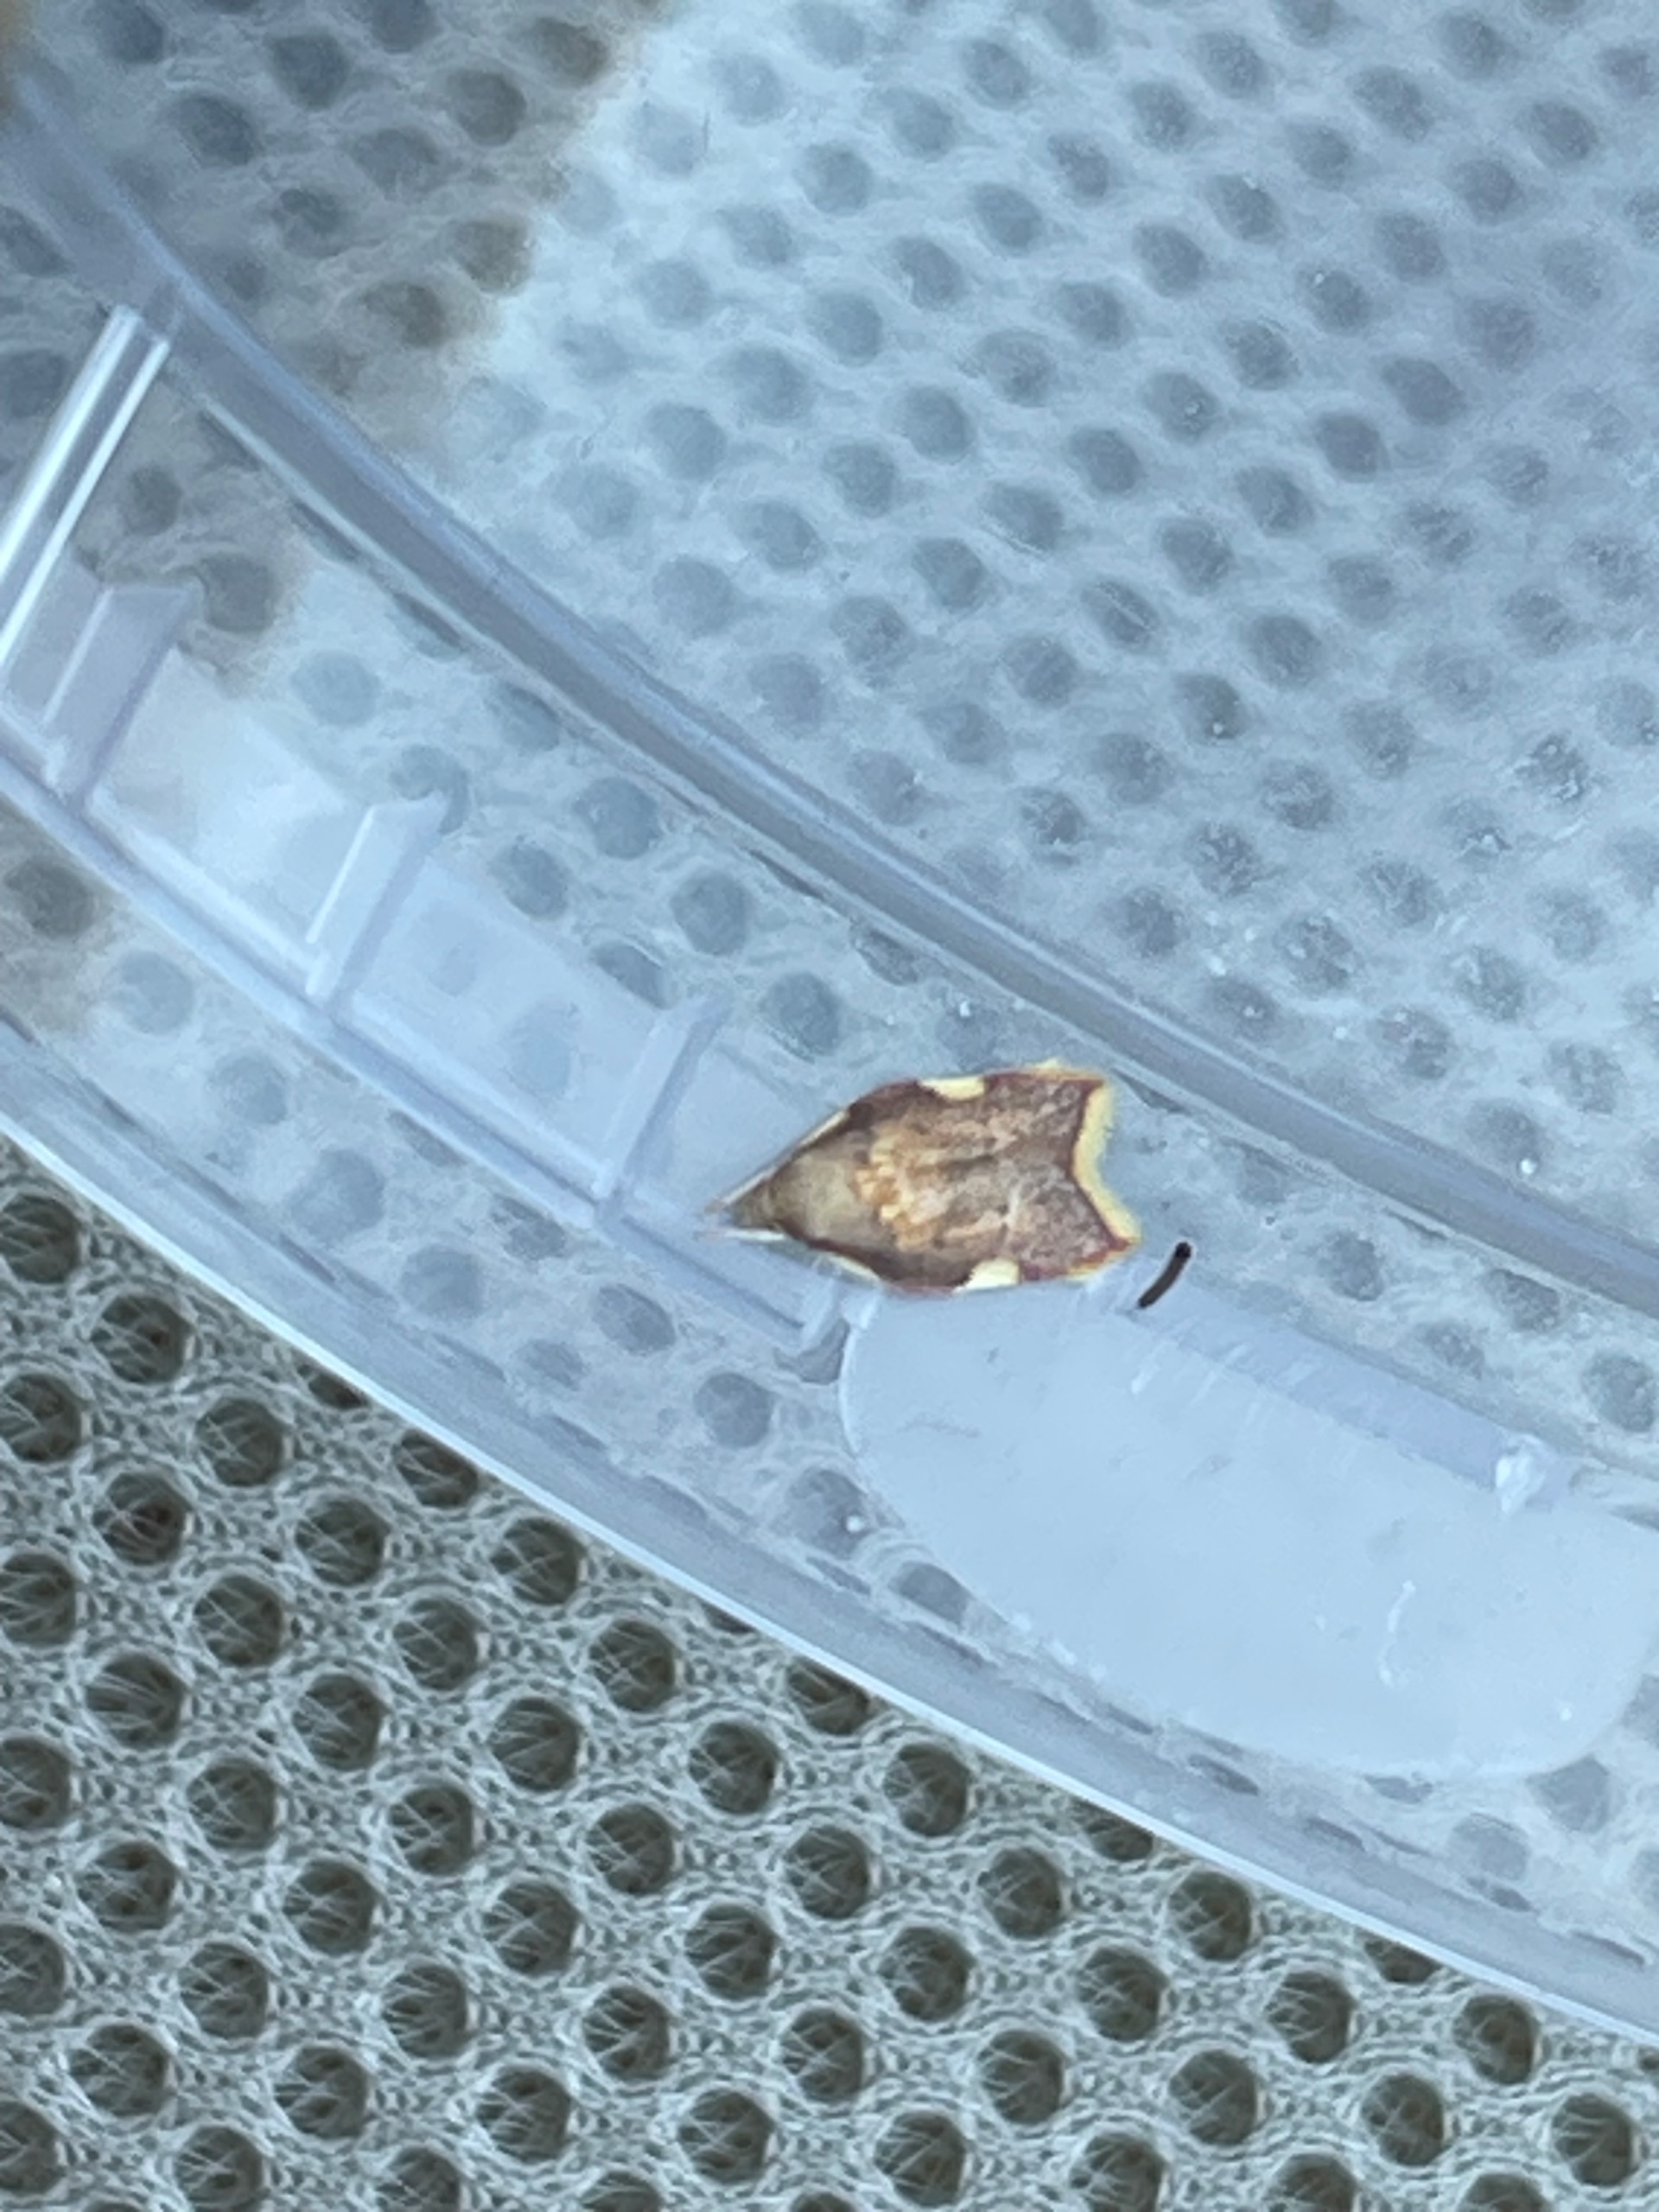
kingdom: Animalia
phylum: Arthropoda
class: Insecta
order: Lepidoptera
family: Peleopodidae
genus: Carcina
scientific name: Carcina quercana
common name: Egeprydvinge
